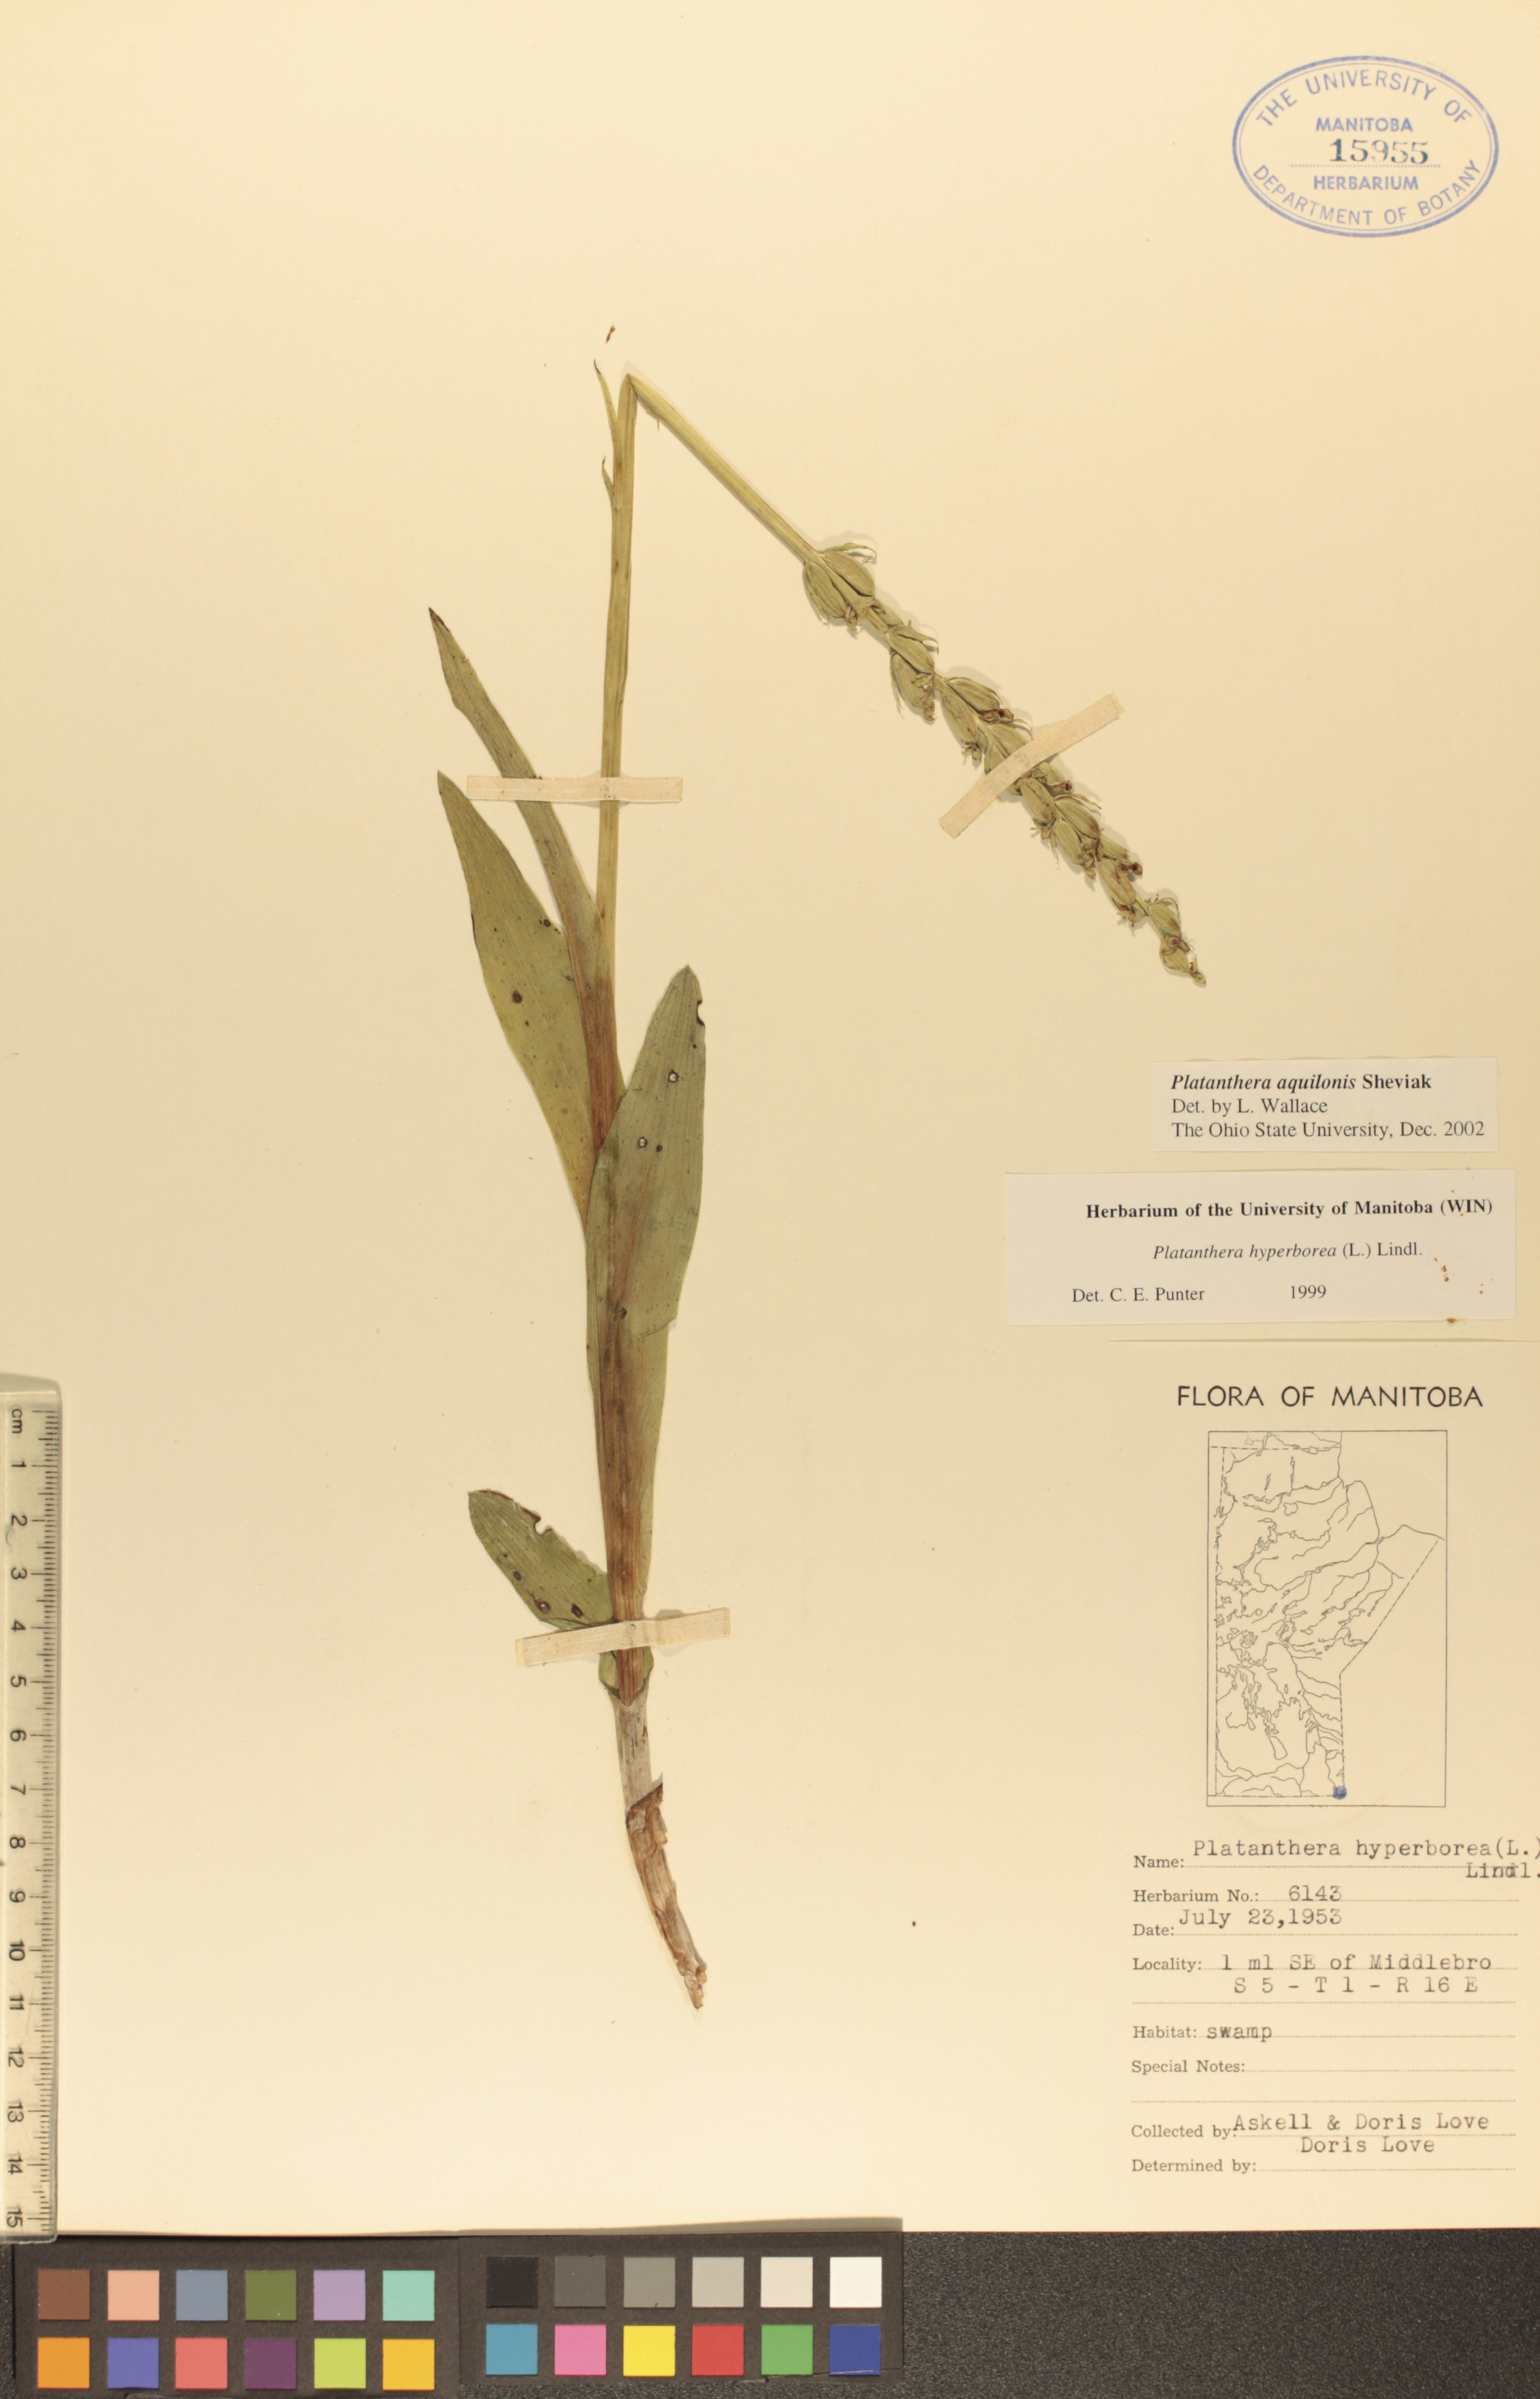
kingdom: Plantae
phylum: Tracheophyta
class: Liliopsida
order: Asparagales
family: Orchidaceae
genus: Platanthera
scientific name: Platanthera aquilonis
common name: Northern green orchid
